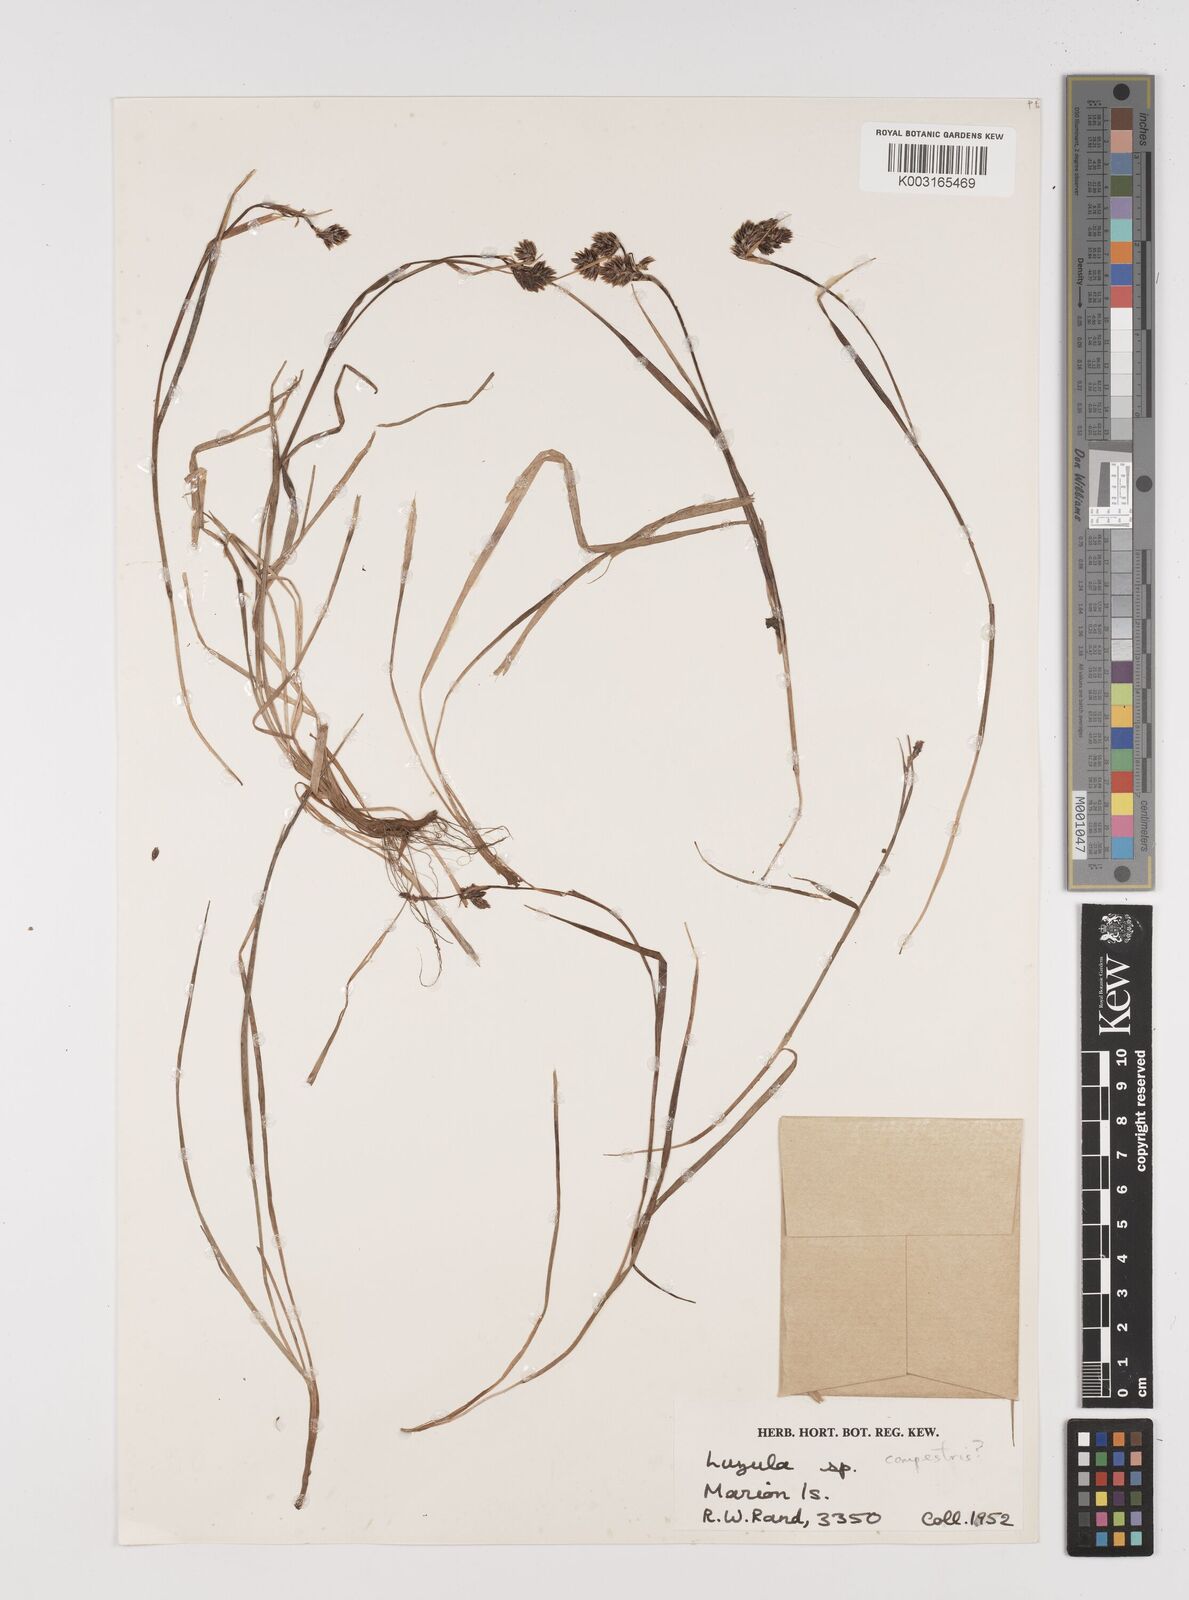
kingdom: Plantae
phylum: Tracheophyta
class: Liliopsida
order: Poales
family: Juncaceae
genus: Luzula
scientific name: Luzula
